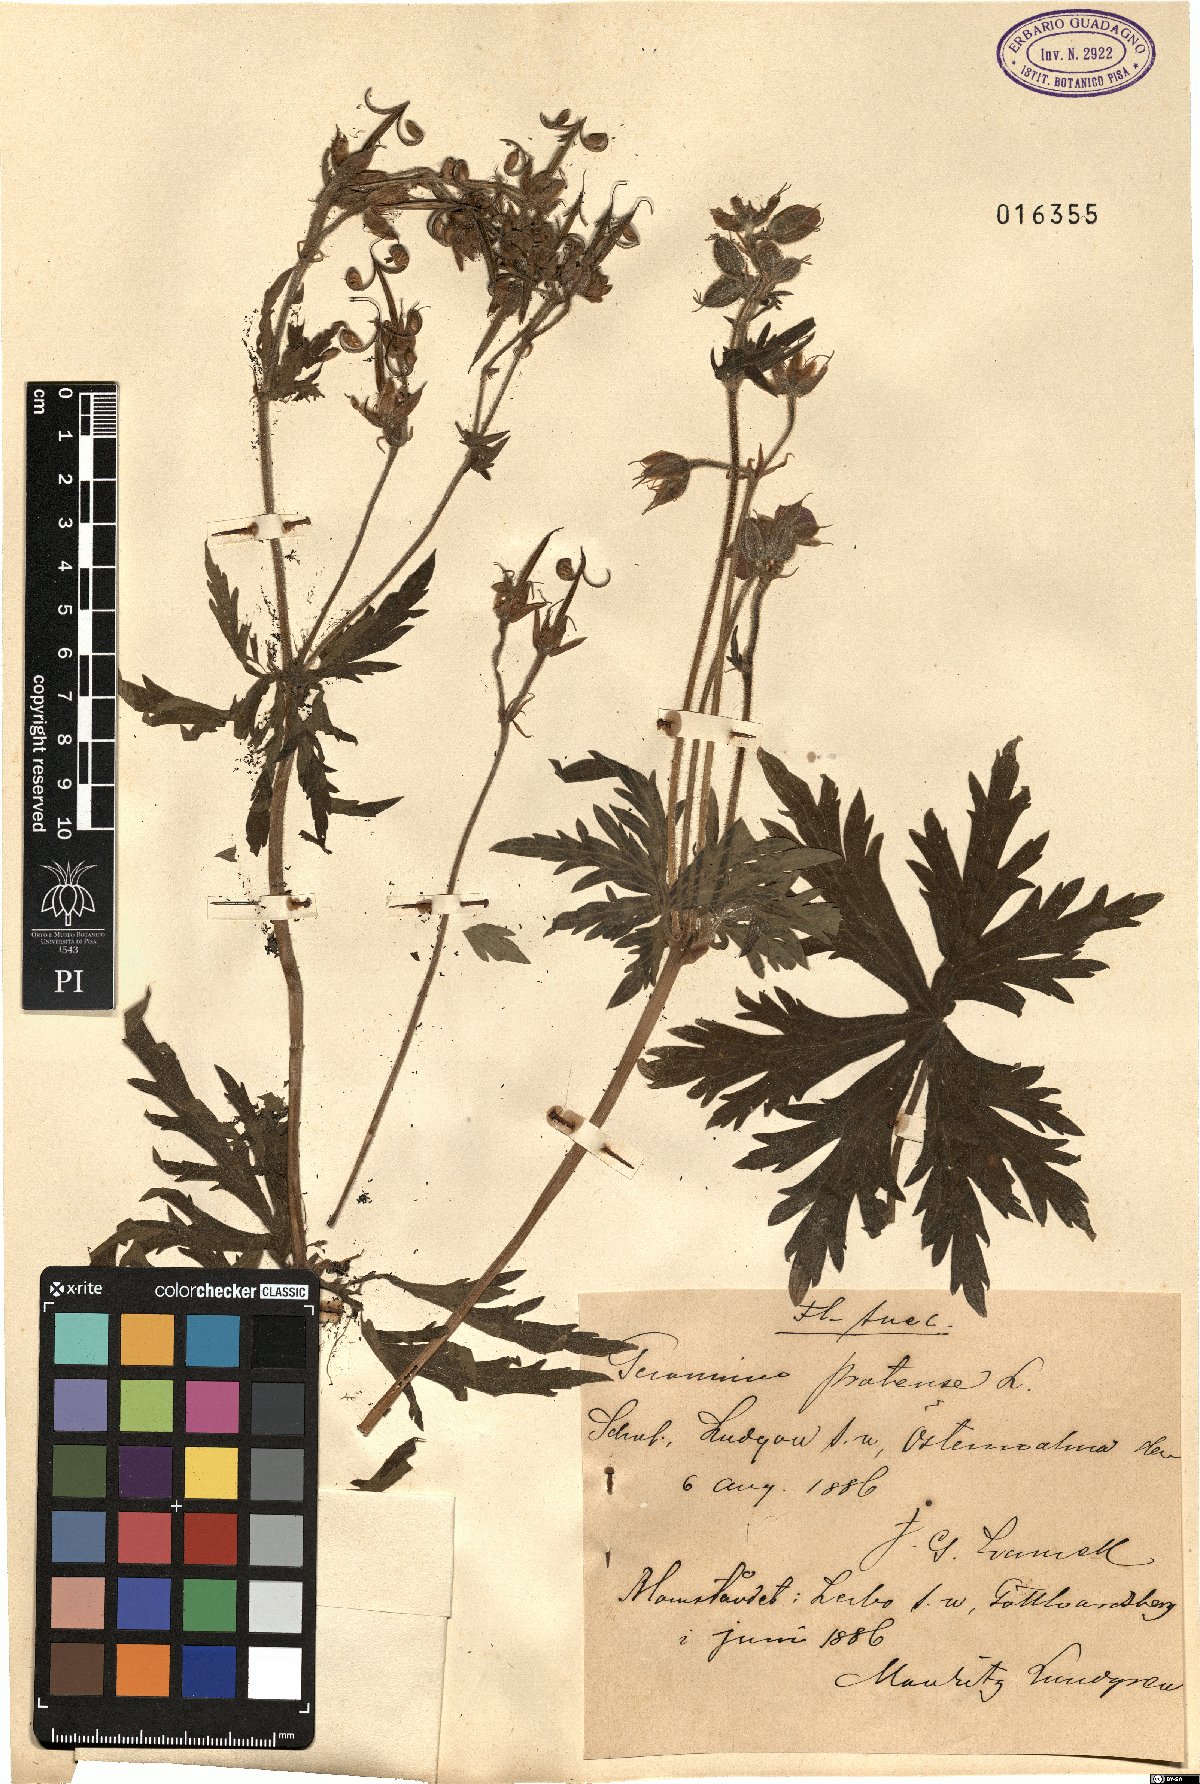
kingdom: Plantae
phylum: Tracheophyta
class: Magnoliopsida
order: Geraniales
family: Geraniaceae
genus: Geranium
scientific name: Geranium pratense
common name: Meadow crane's-bill
